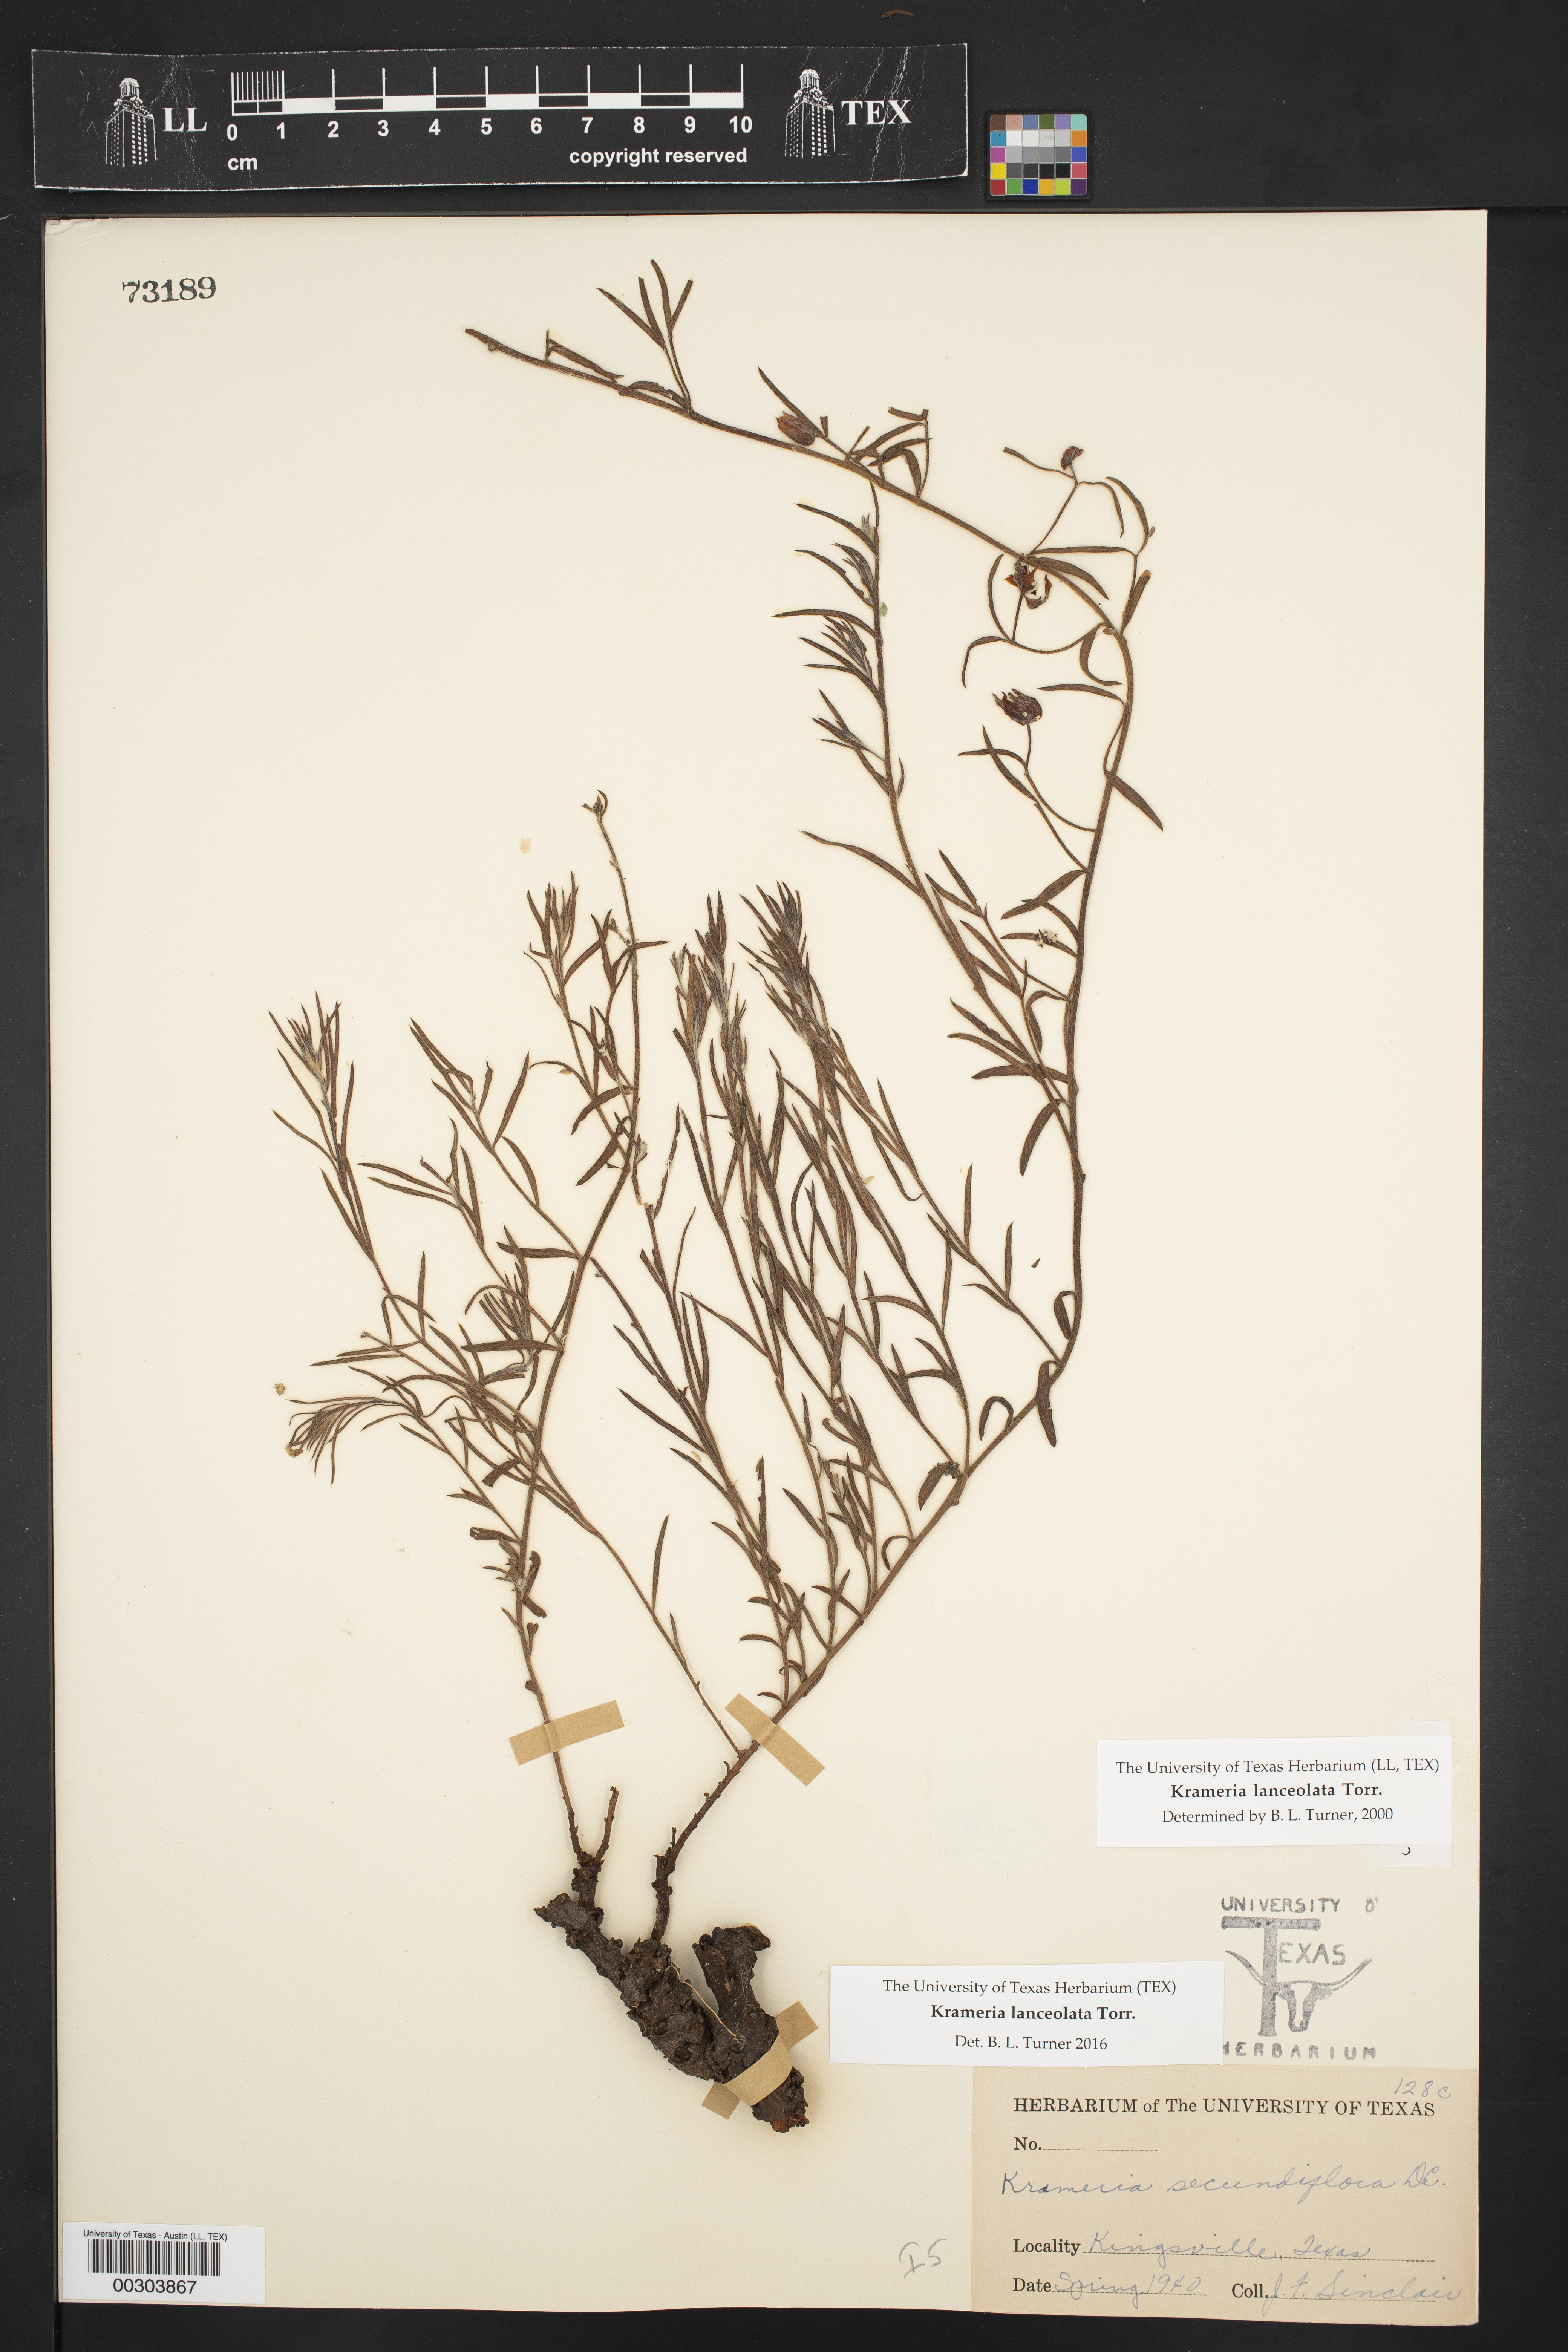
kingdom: Plantae
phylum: Tracheophyta
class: Magnoliopsida
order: Zygophyllales
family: Krameriaceae
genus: Krameria
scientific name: Krameria lanceolata
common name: Ratany
